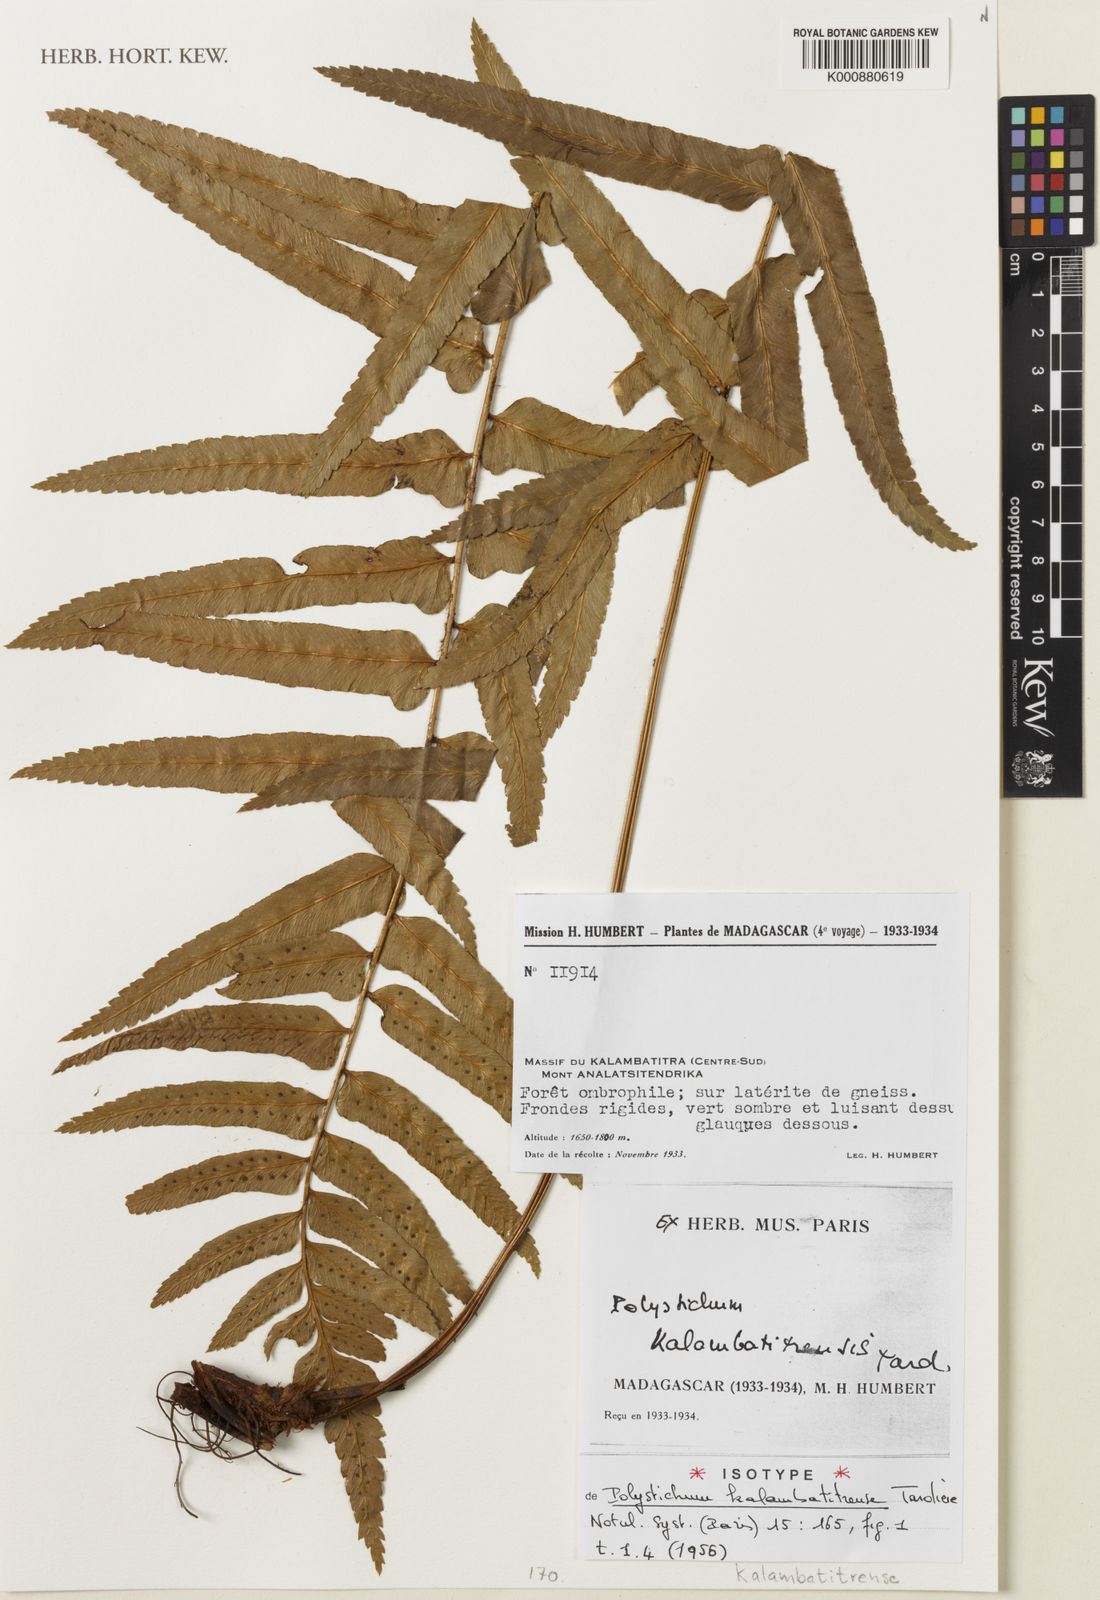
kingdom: Plantae
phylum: Tracheophyta
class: Polypodiopsida
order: Polypodiales
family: Dryopteridaceae
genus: Polystichum
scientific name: Polystichum kalambatitrense
